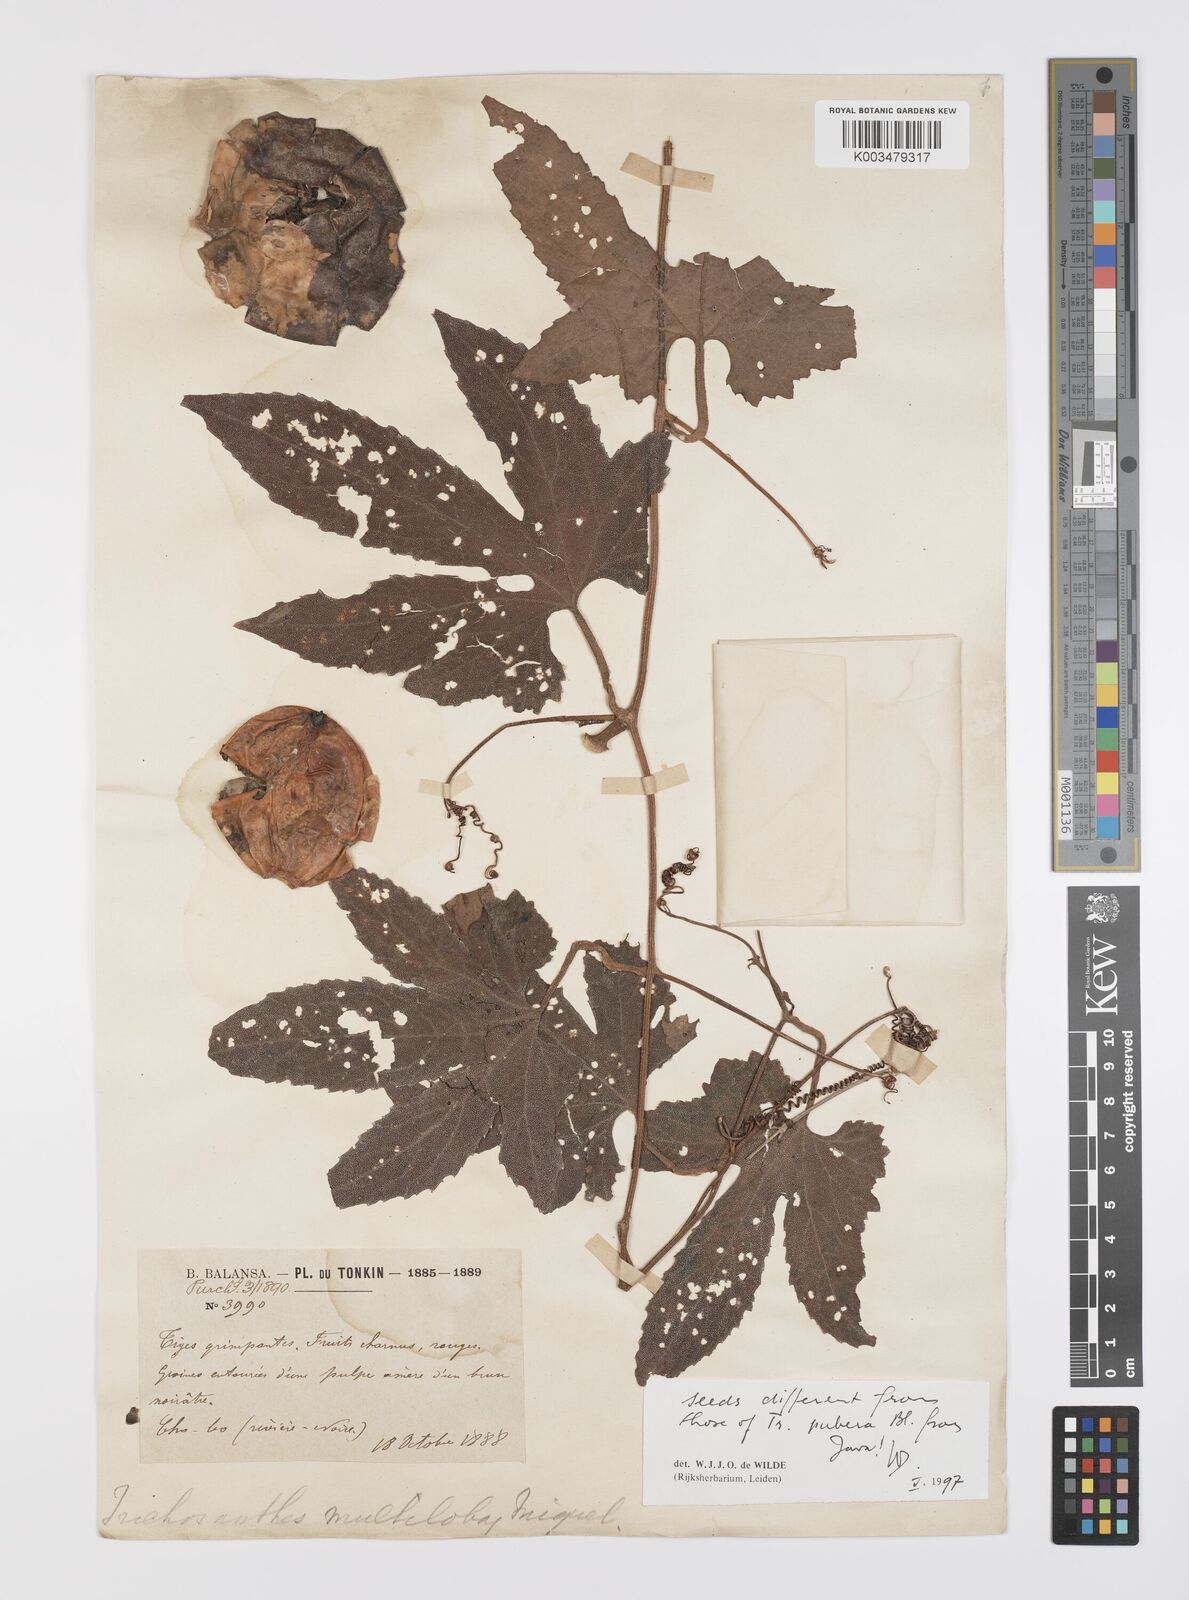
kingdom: Plantae
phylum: Tracheophyta
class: Magnoliopsida
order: Cucurbitales
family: Cucurbitaceae
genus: Trichosanthes
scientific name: Trichosanthes rubriflos
